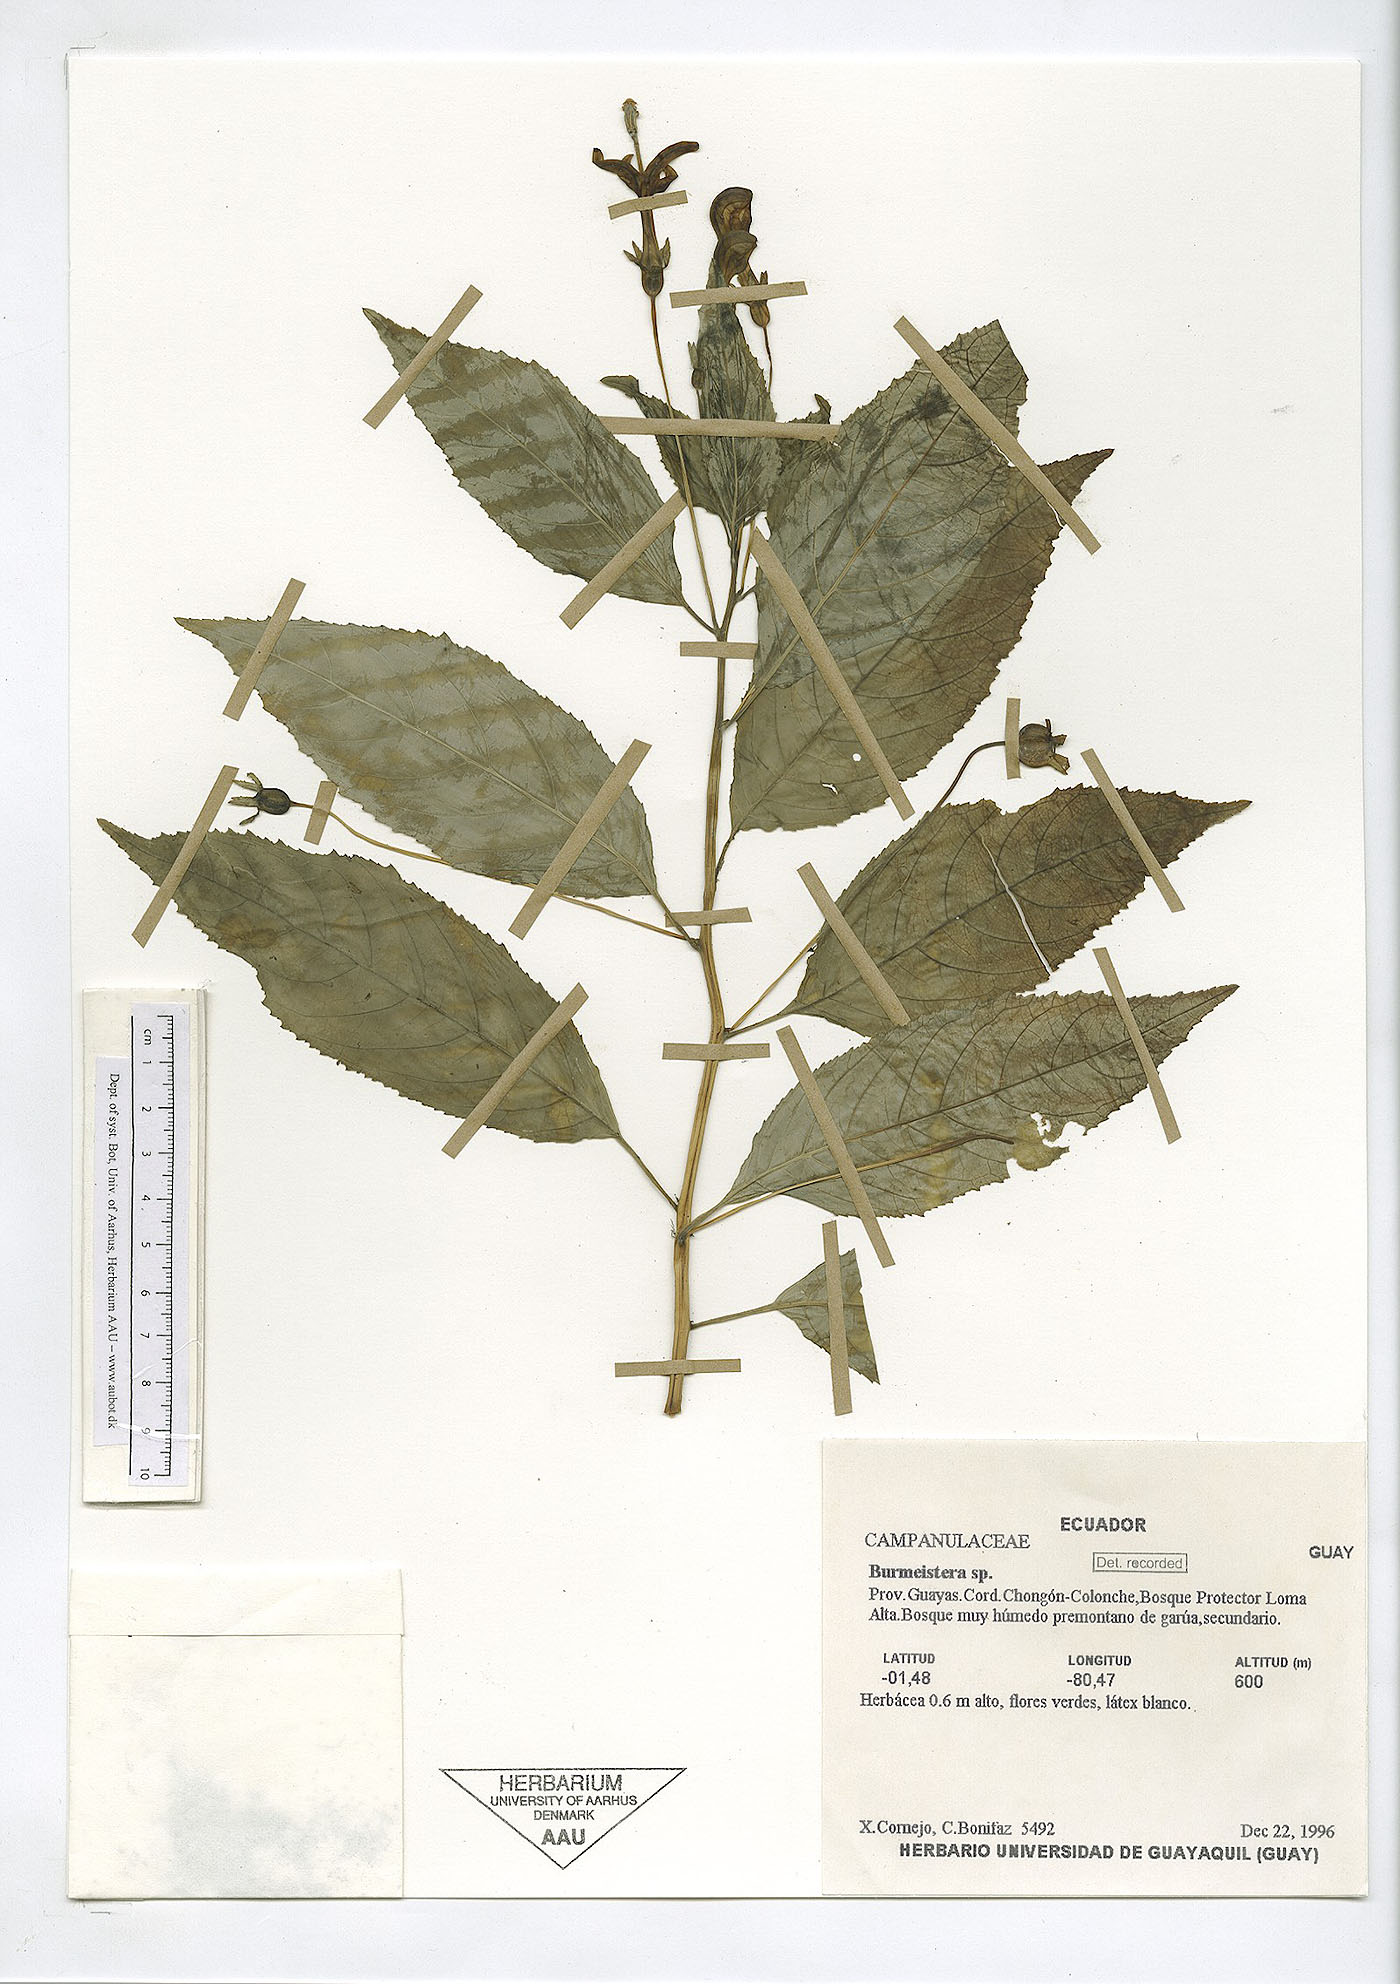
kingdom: Plantae
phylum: Tracheophyta
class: Magnoliopsida
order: Asterales
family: Campanulaceae
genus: Burmeistera
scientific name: Burmeistera
